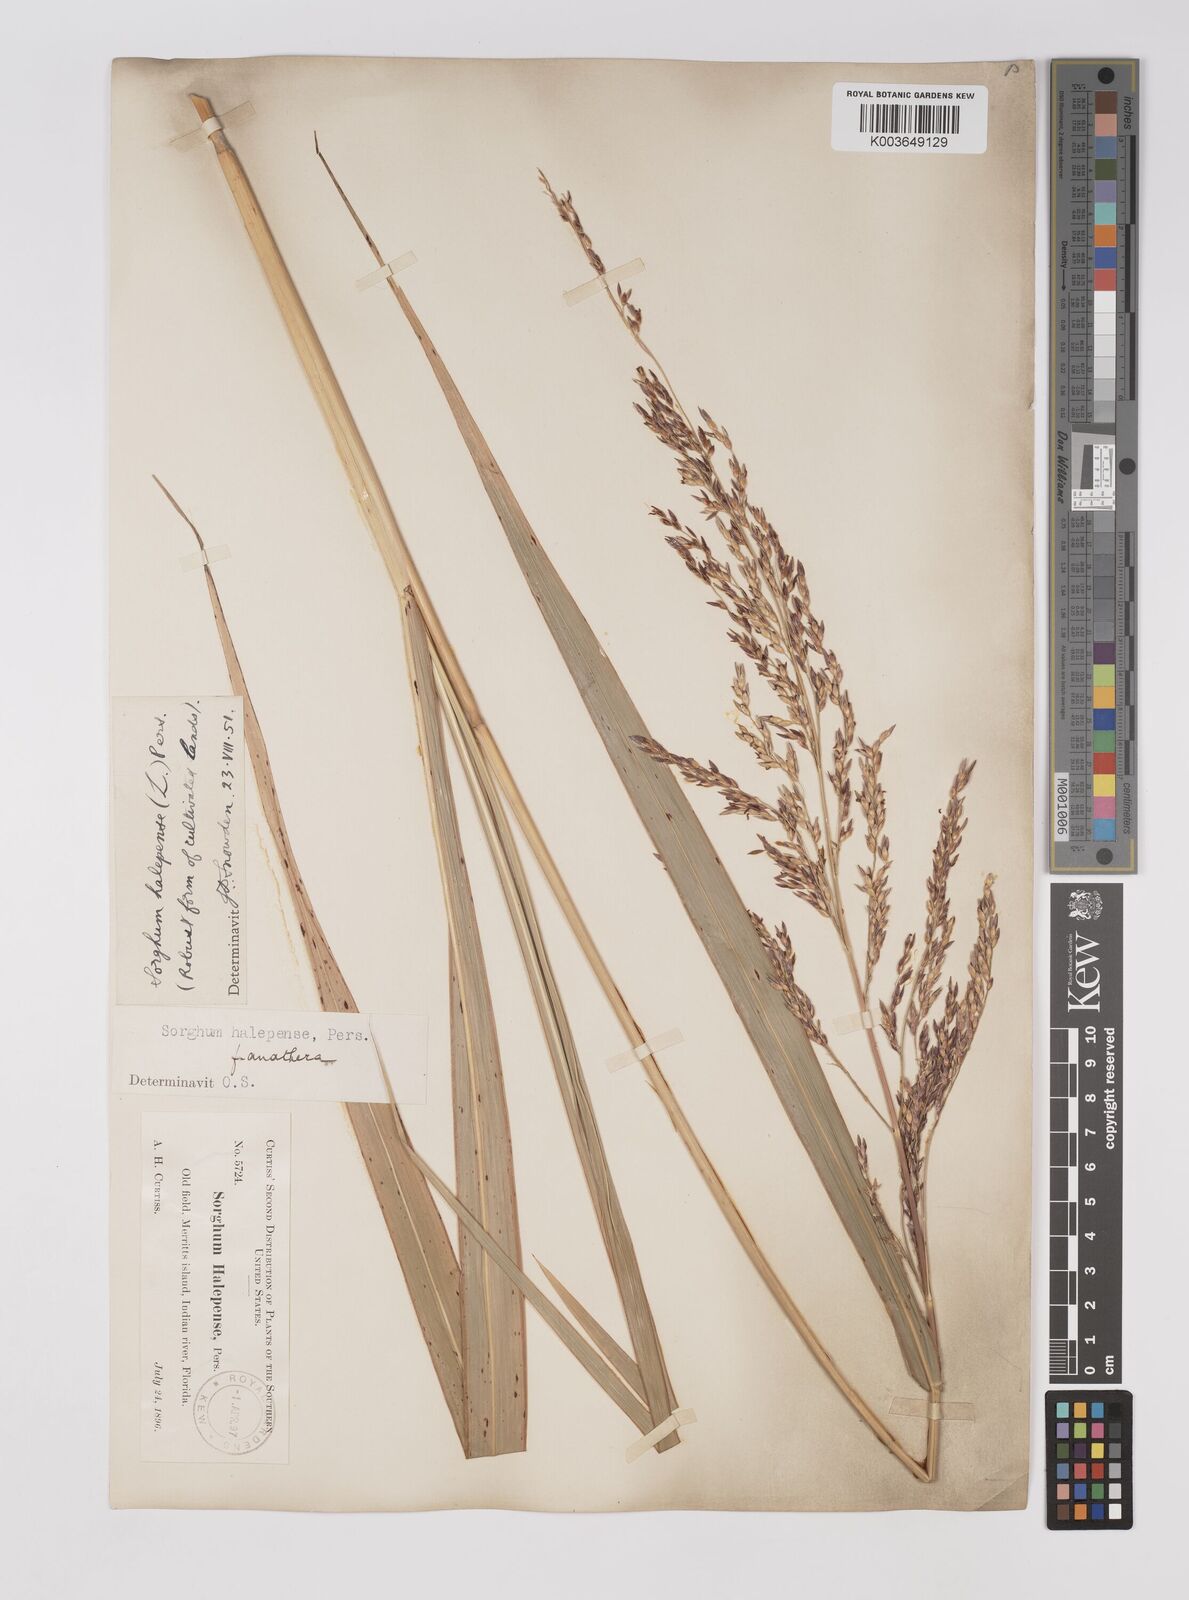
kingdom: Plantae
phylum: Tracheophyta
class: Liliopsida
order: Poales
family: Poaceae
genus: Sorghum
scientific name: Sorghum halepense
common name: Johnson-grass
